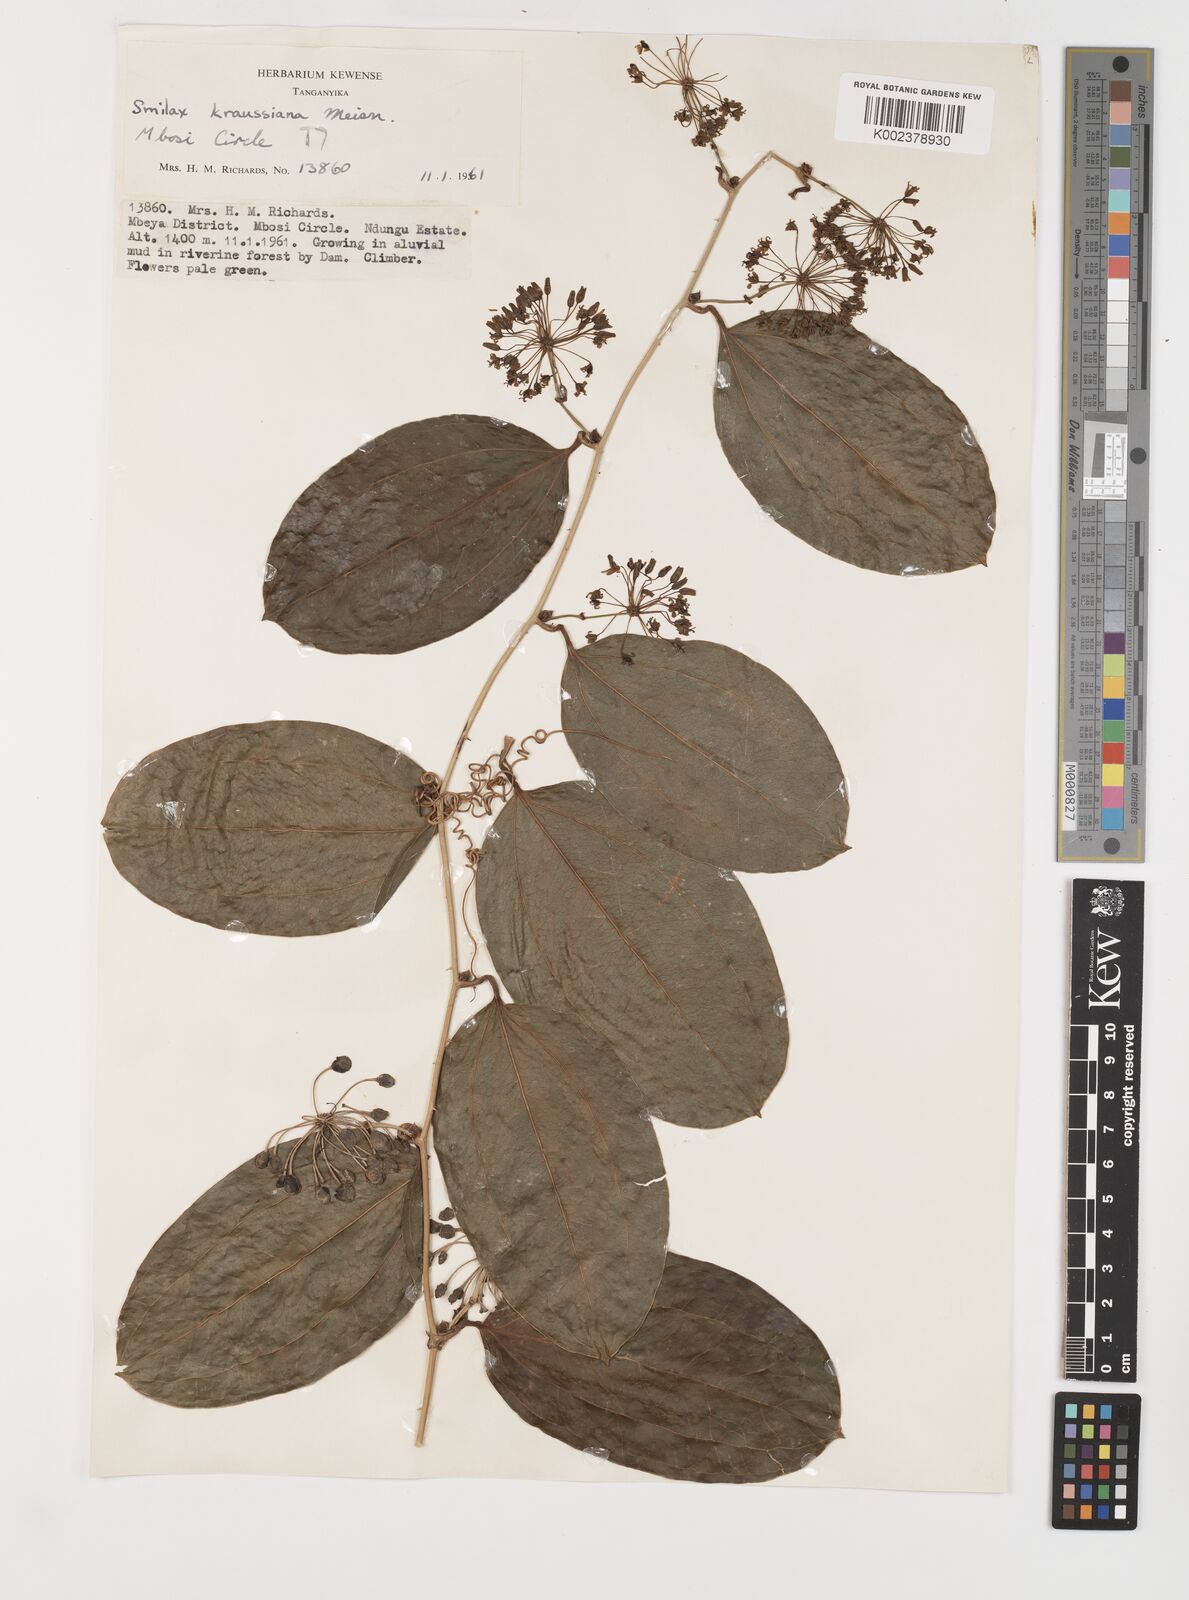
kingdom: Plantae
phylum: Tracheophyta
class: Liliopsida
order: Liliales
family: Smilacaceae
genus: Smilax
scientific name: Smilax anceps
